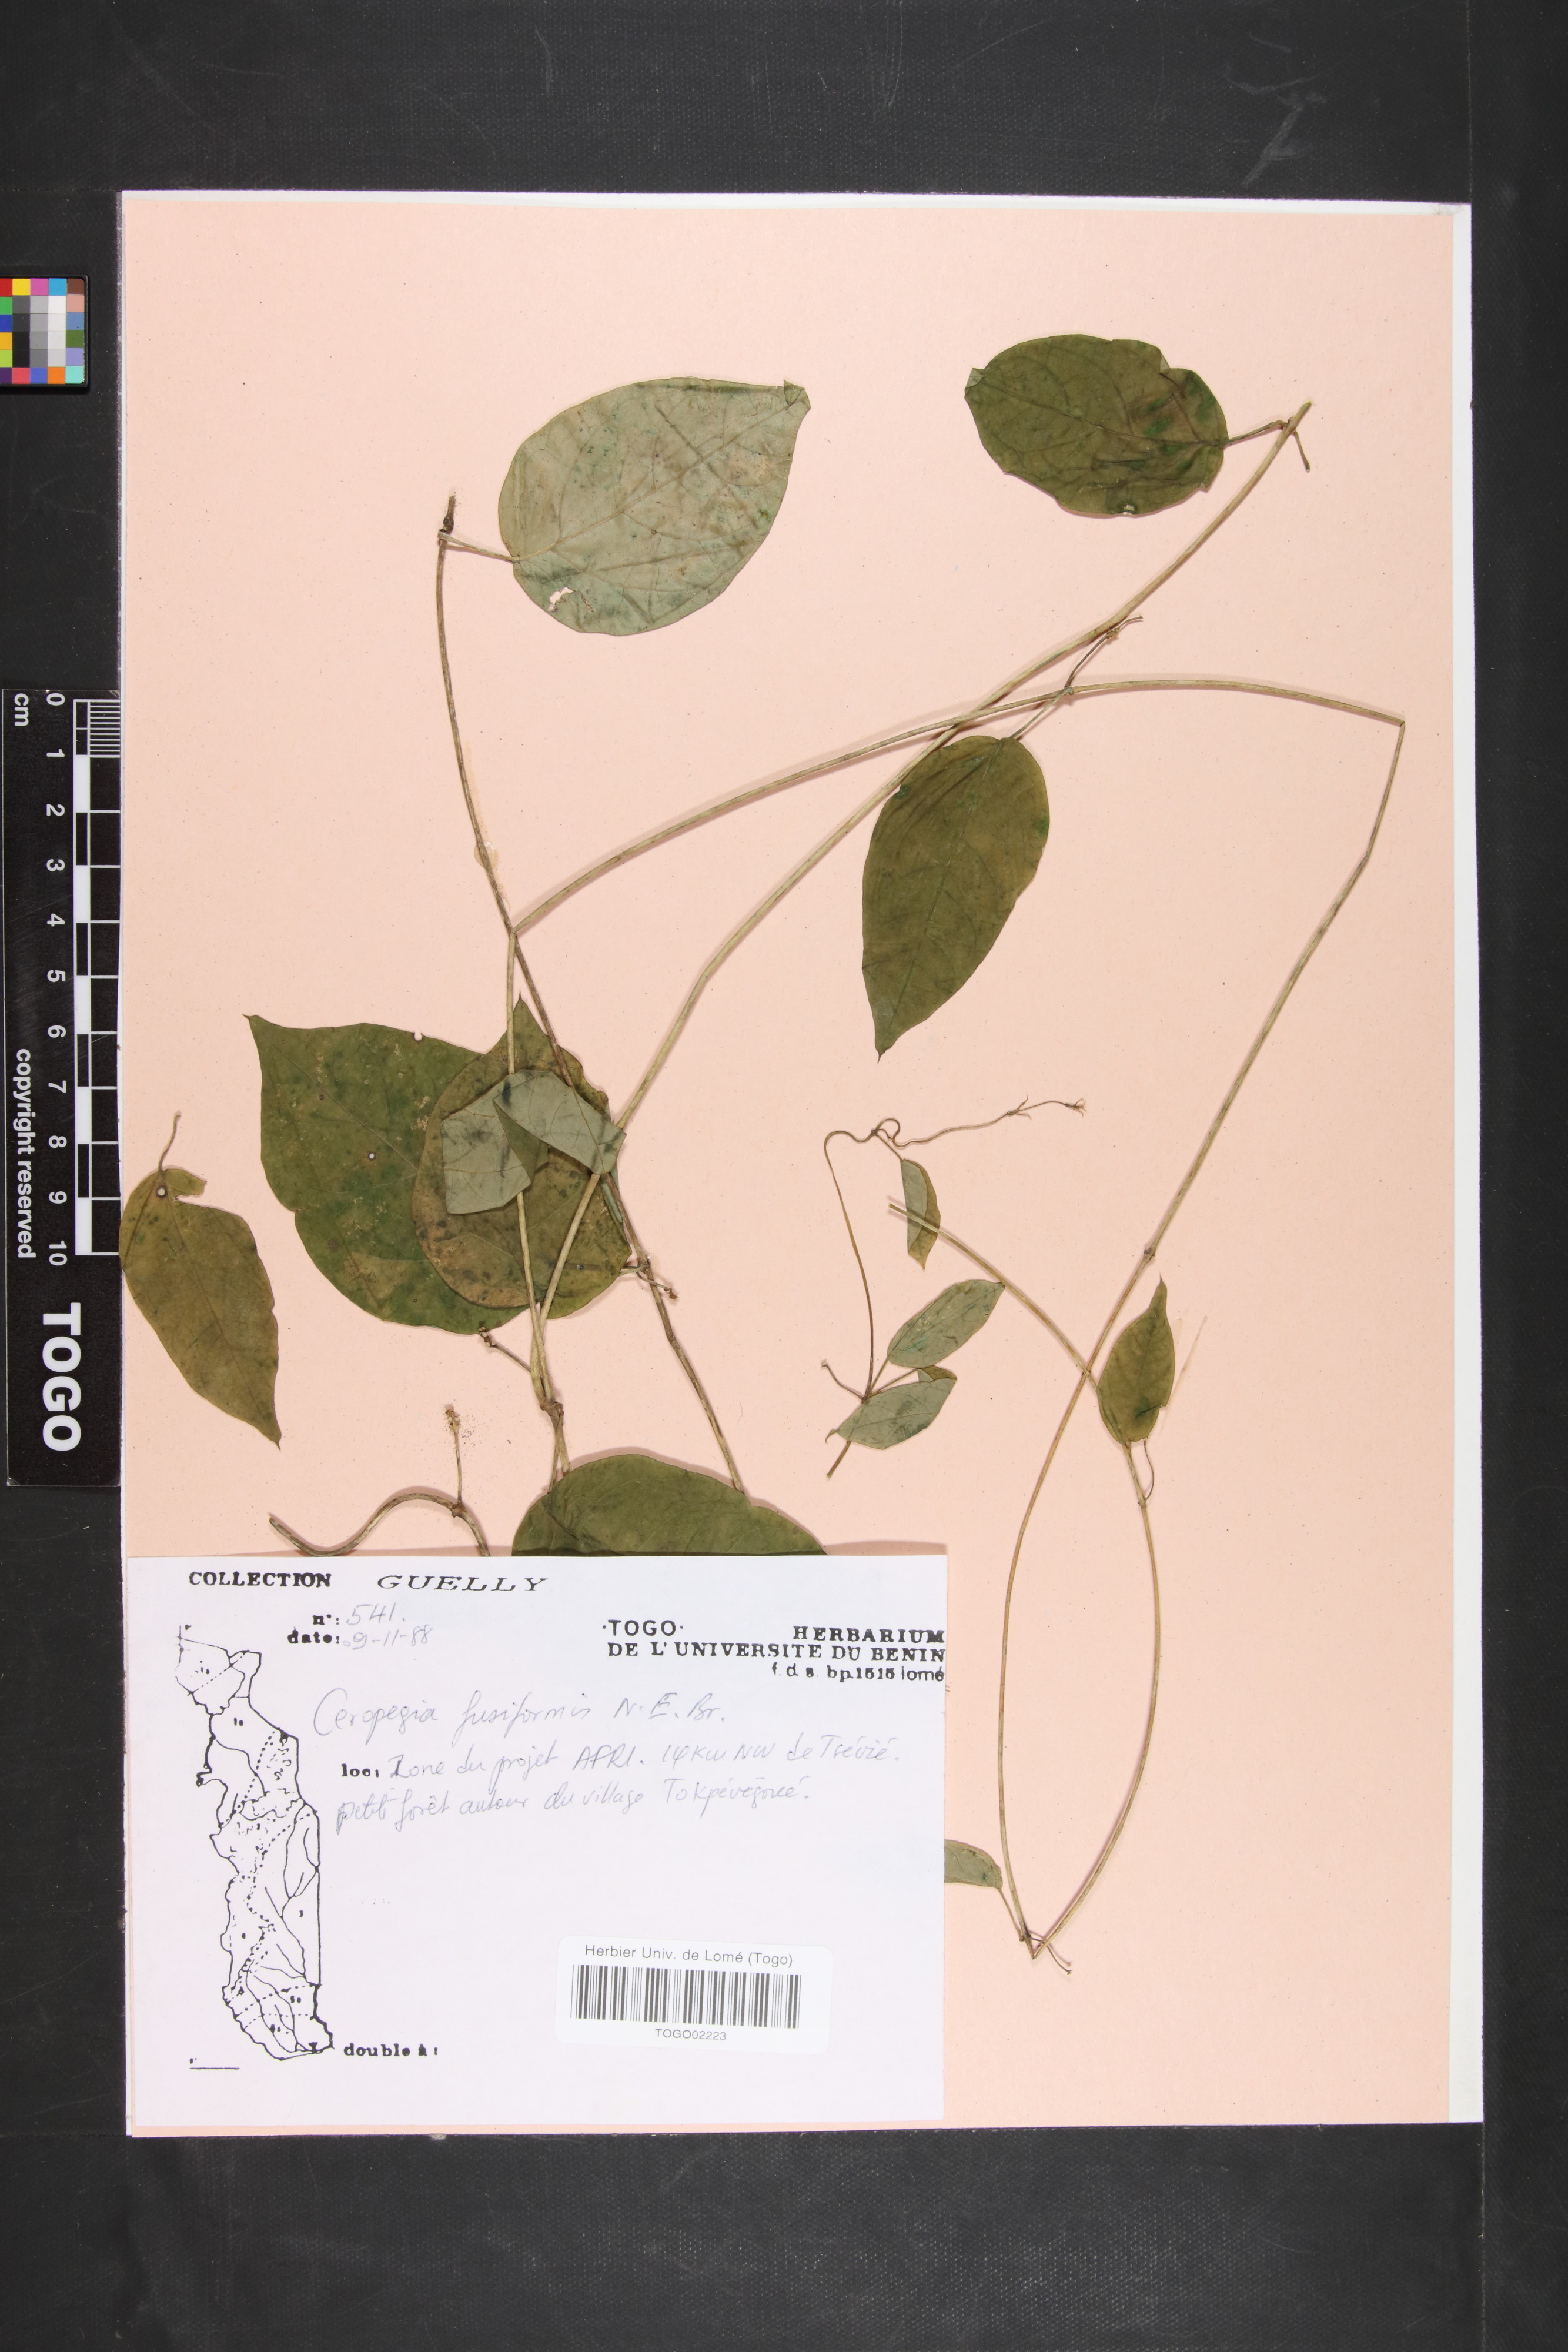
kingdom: Plantae
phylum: Tracheophyta
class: Magnoliopsida
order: Gentianales
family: Apocynaceae
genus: Ceropegia
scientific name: Ceropegia fusiformis
